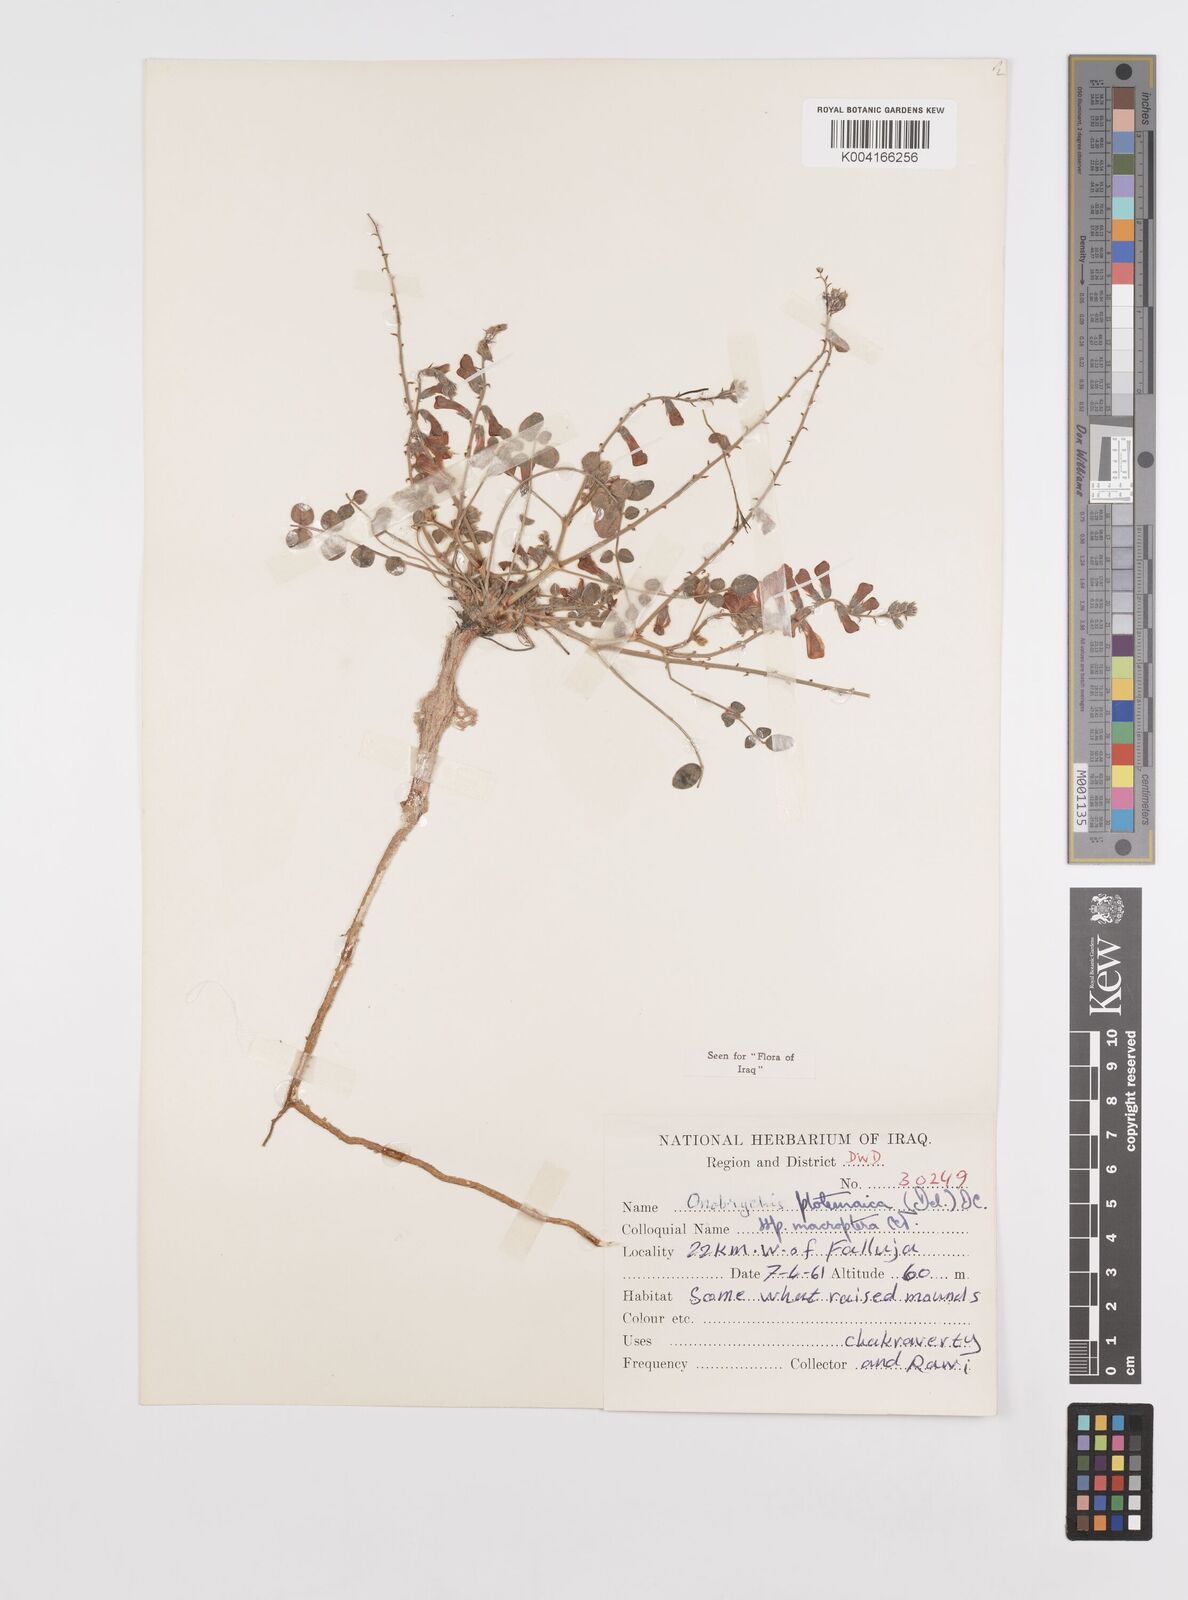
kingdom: Plantae
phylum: Tracheophyta
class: Magnoliopsida
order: Fabales
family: Fabaceae
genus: Onobrychis
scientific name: Onobrychis ptolemaica
